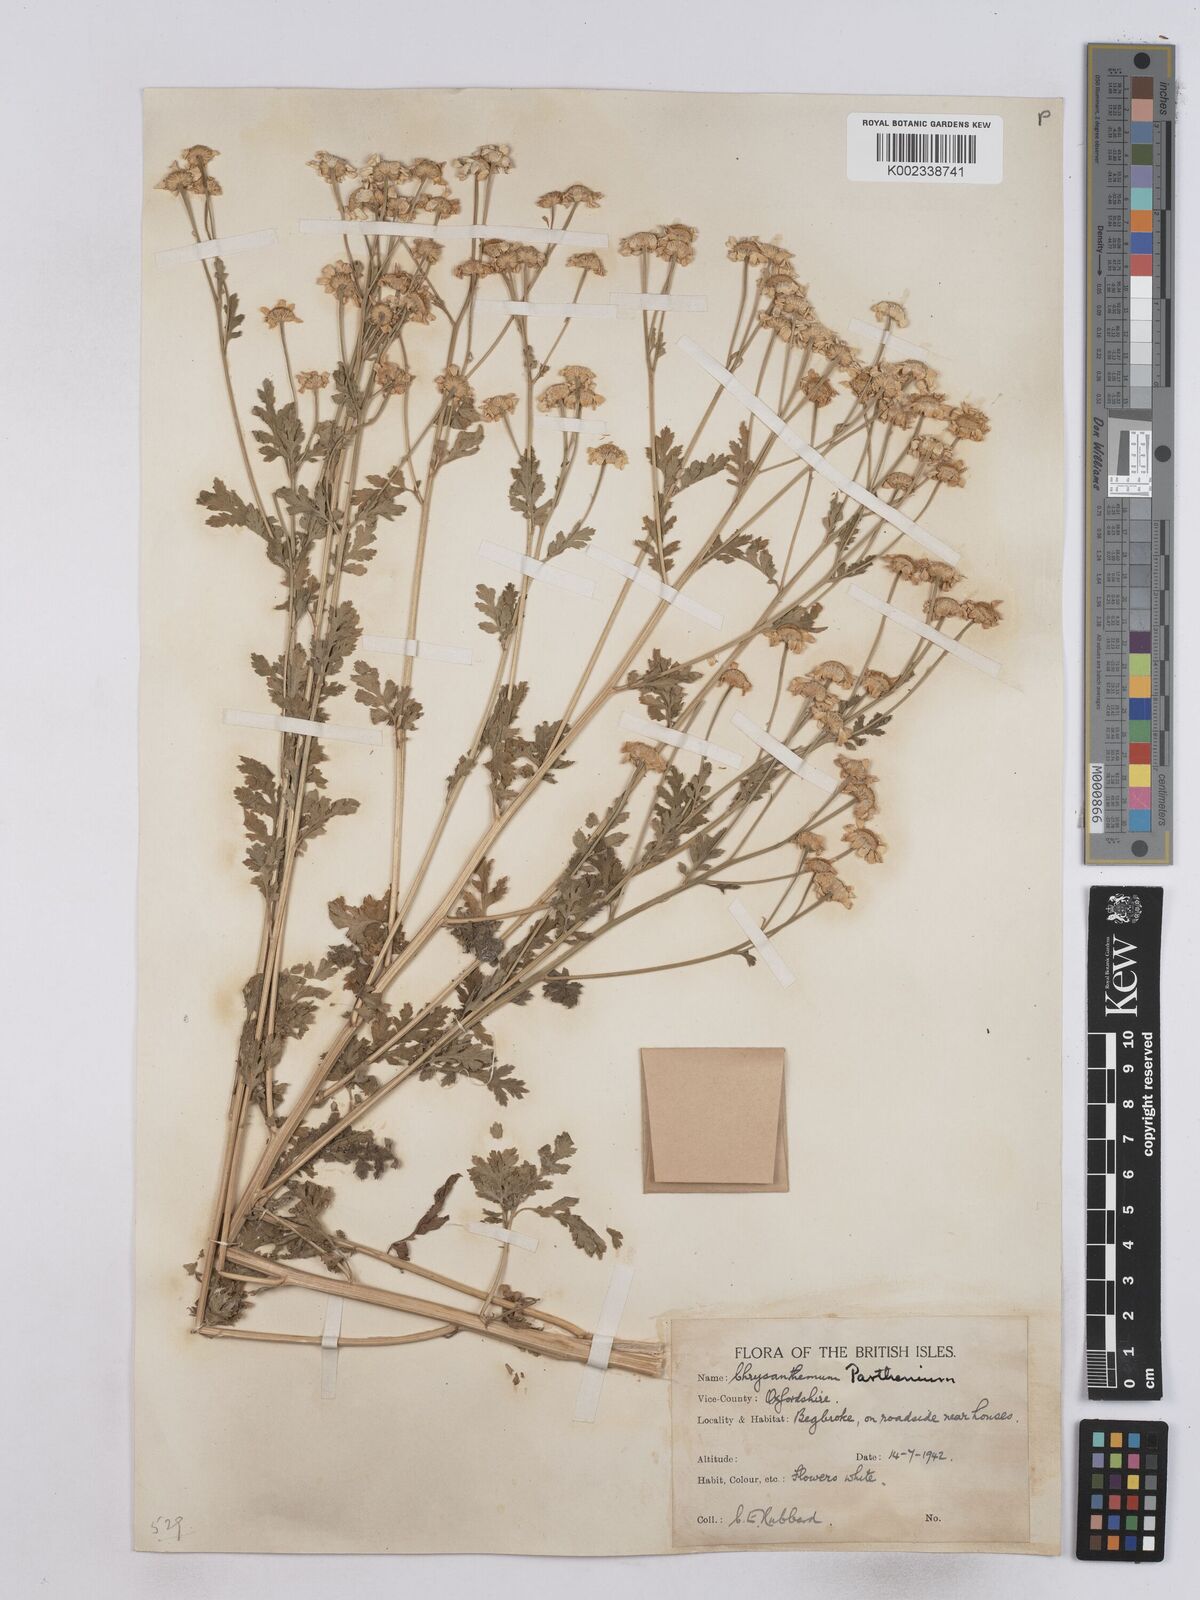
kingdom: Plantae
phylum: Tracheophyta
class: Magnoliopsida
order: Asterales
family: Asteraceae
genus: Tanacetum
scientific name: Tanacetum parthenium
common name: Feverfew
